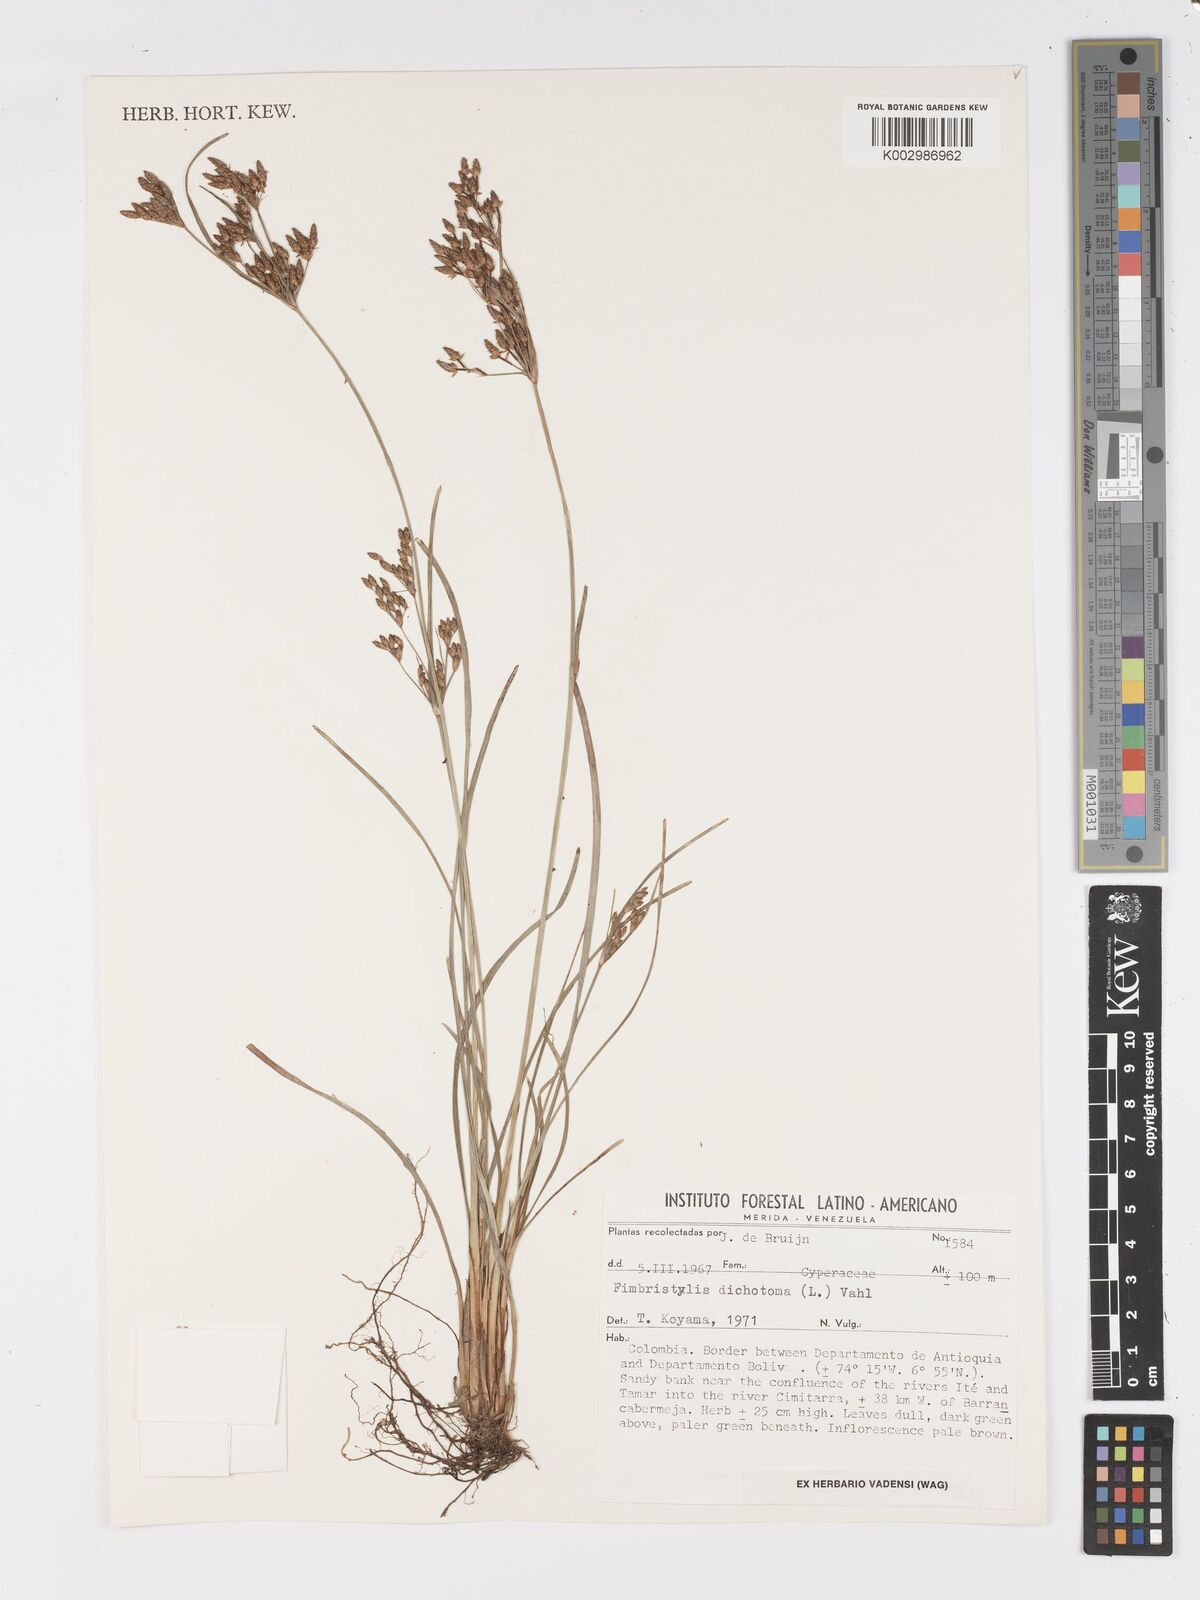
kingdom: Plantae
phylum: Tracheophyta
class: Liliopsida
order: Poales
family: Cyperaceae
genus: Fimbristylis
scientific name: Fimbristylis dichotoma
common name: Forked fimbry
